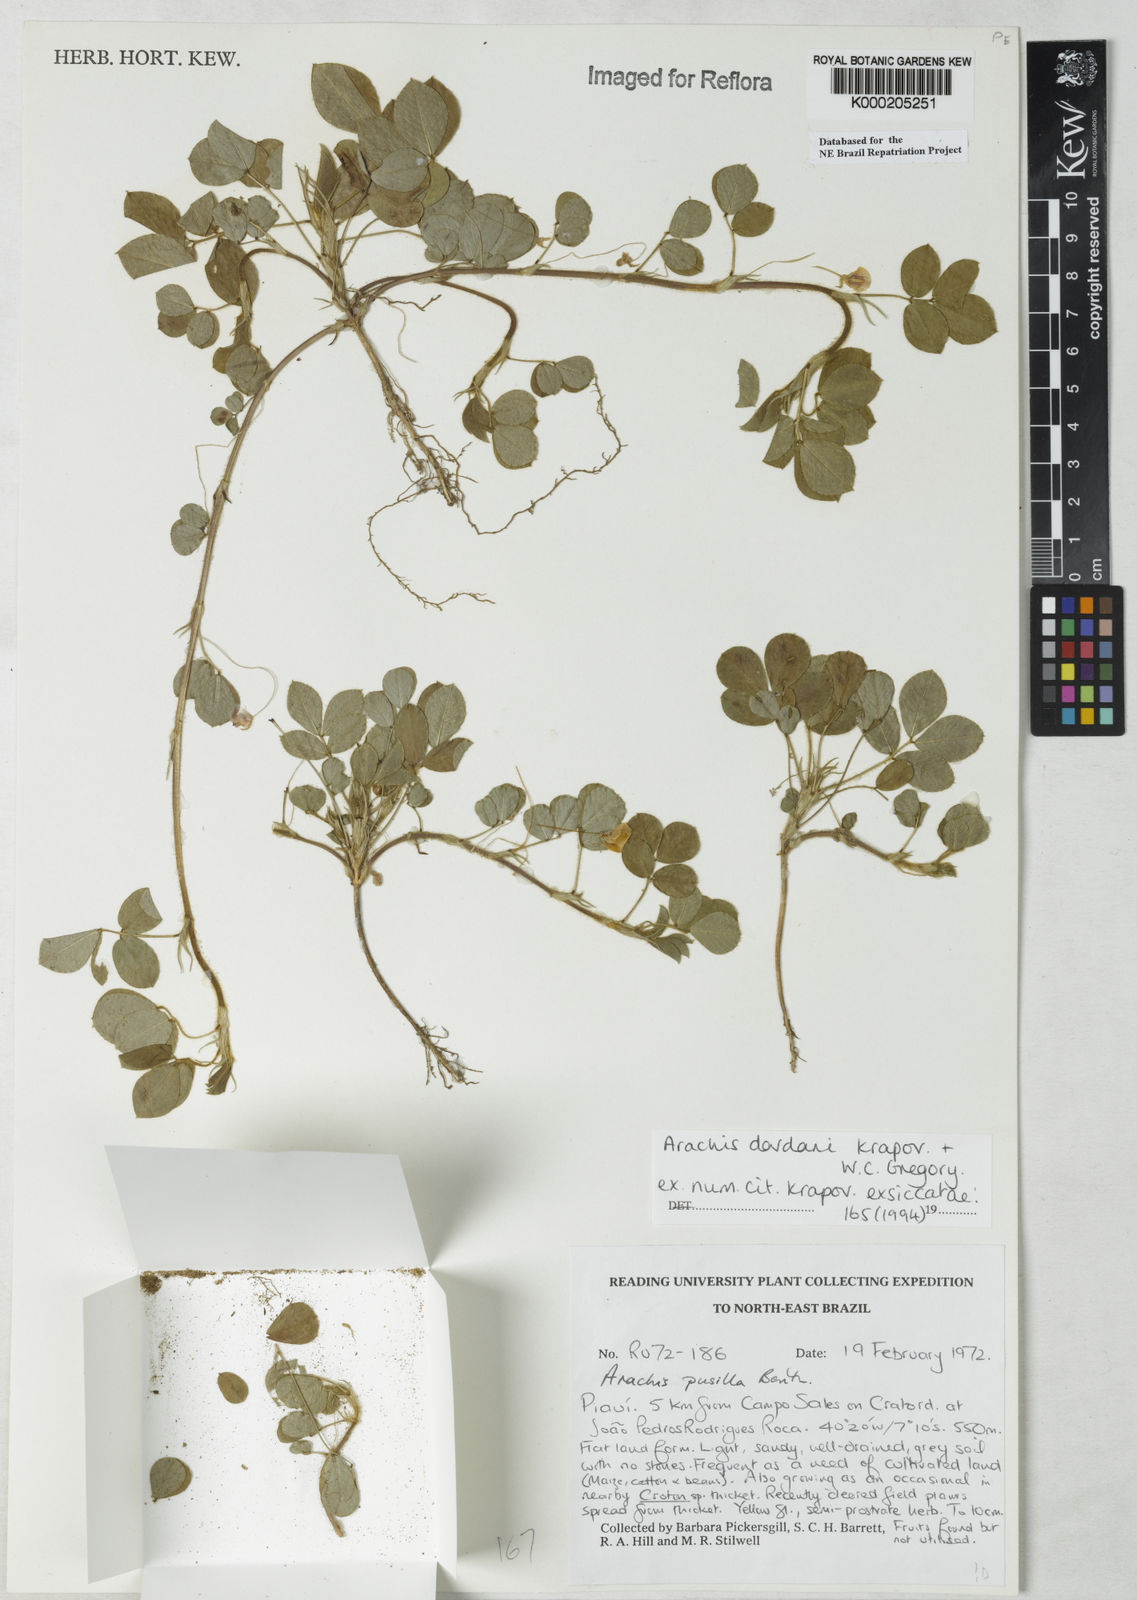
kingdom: Plantae
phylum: Tracheophyta
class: Magnoliopsida
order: Fabales
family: Fabaceae
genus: Arachis
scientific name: Arachis
